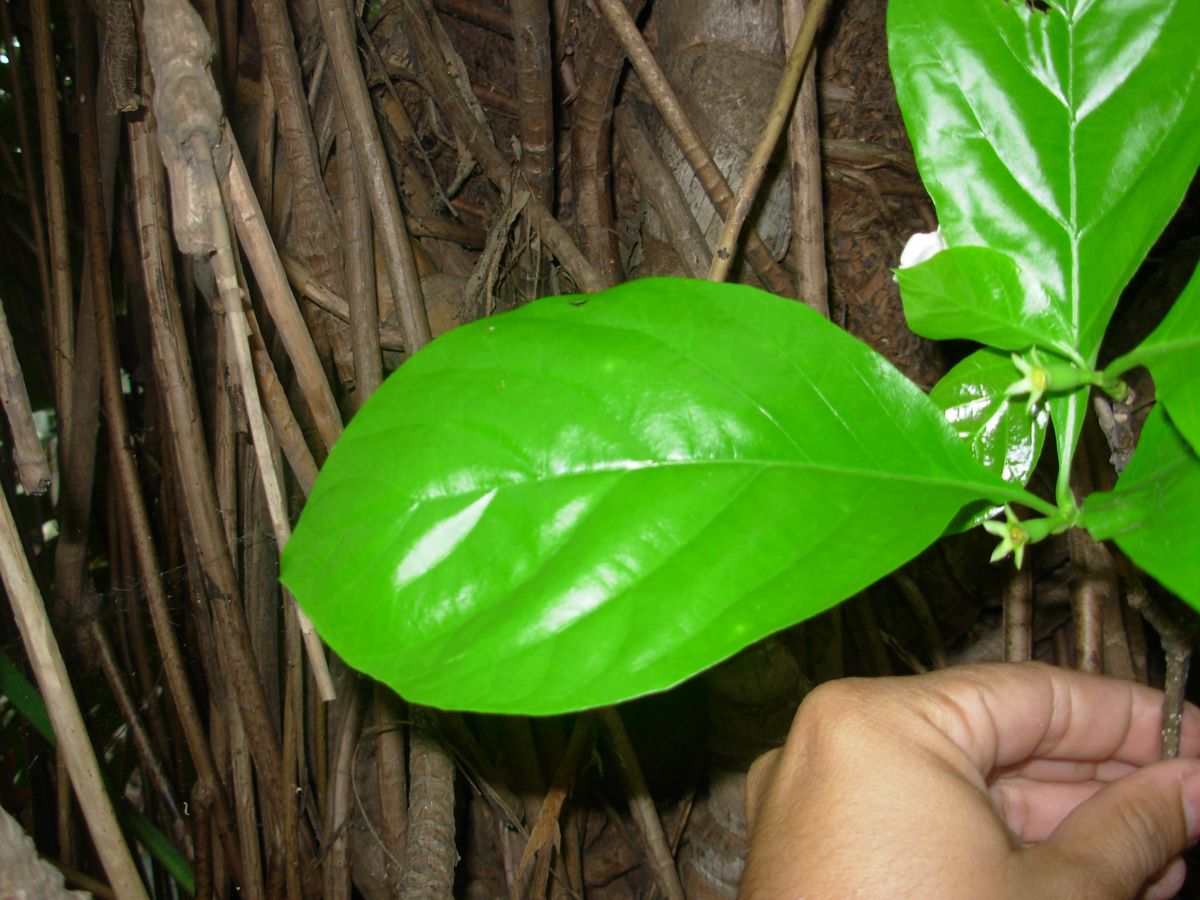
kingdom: Plantae
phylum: Tracheophyta
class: Magnoliopsida
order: Gentianales
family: Rubiaceae
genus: Randia
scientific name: Randia armata
